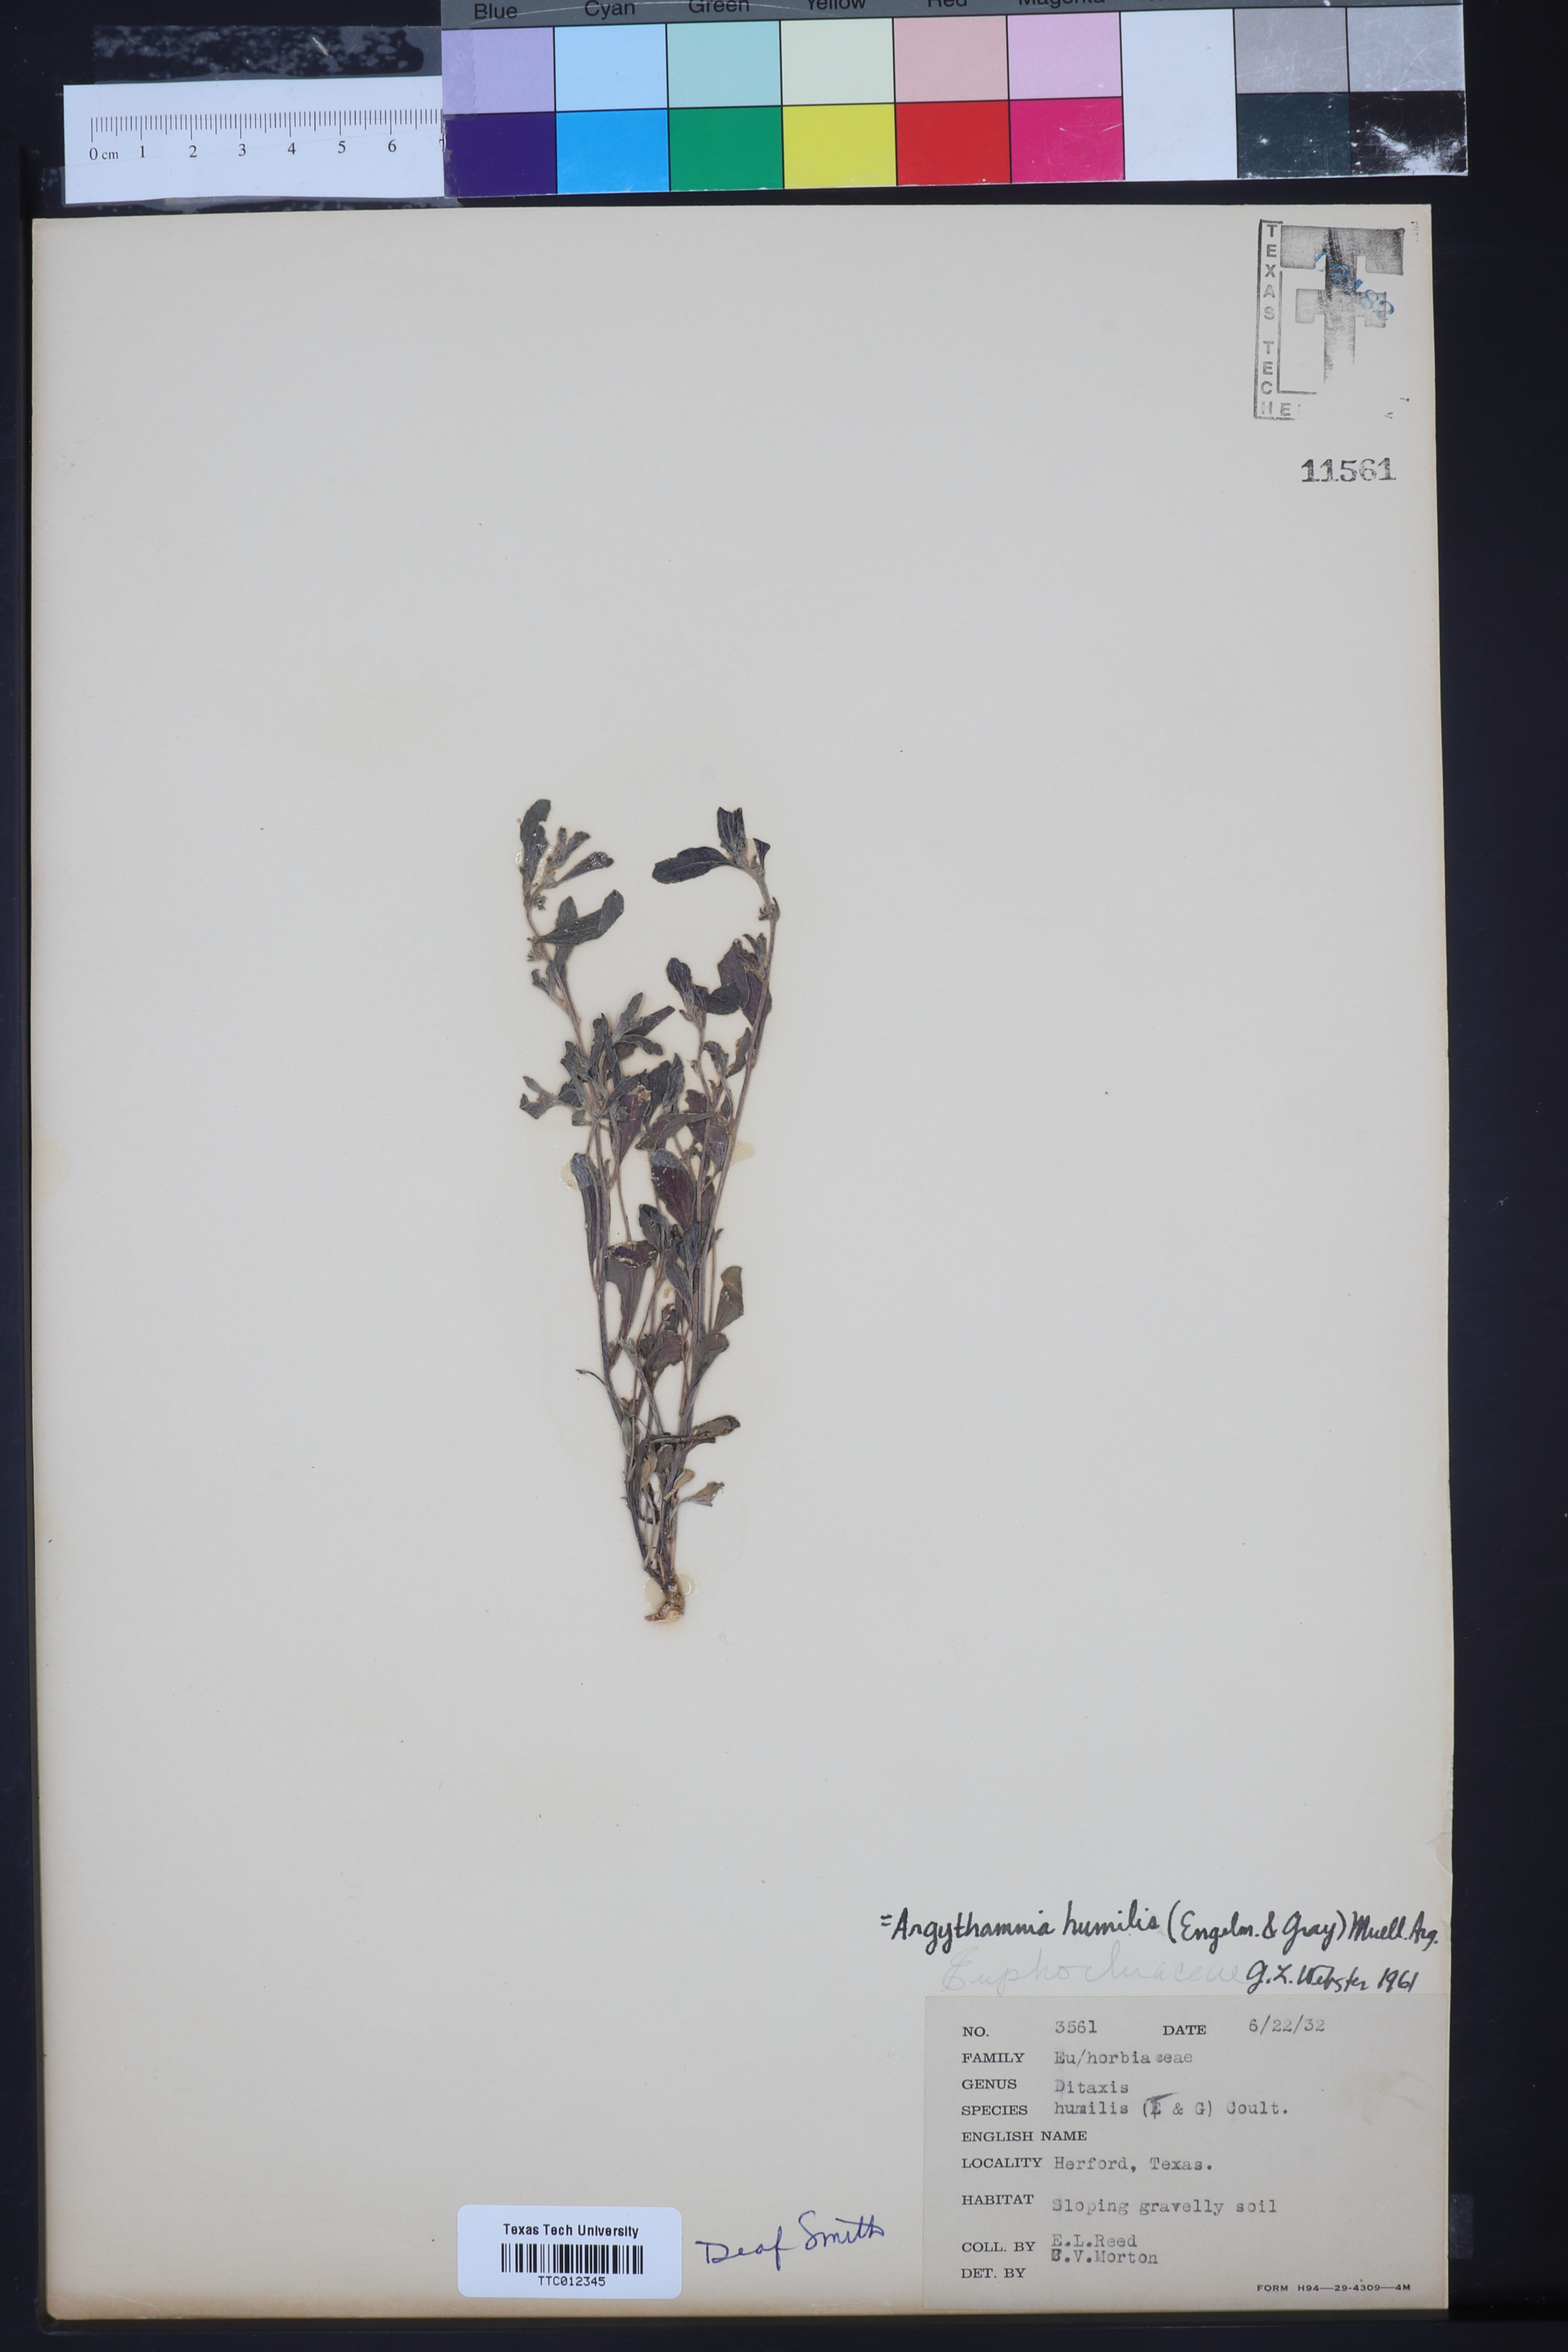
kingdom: Plantae
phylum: Tracheophyta
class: Magnoliopsida
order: Malpighiales
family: Euphorbiaceae
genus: Ditaxis
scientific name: Ditaxis humilis
